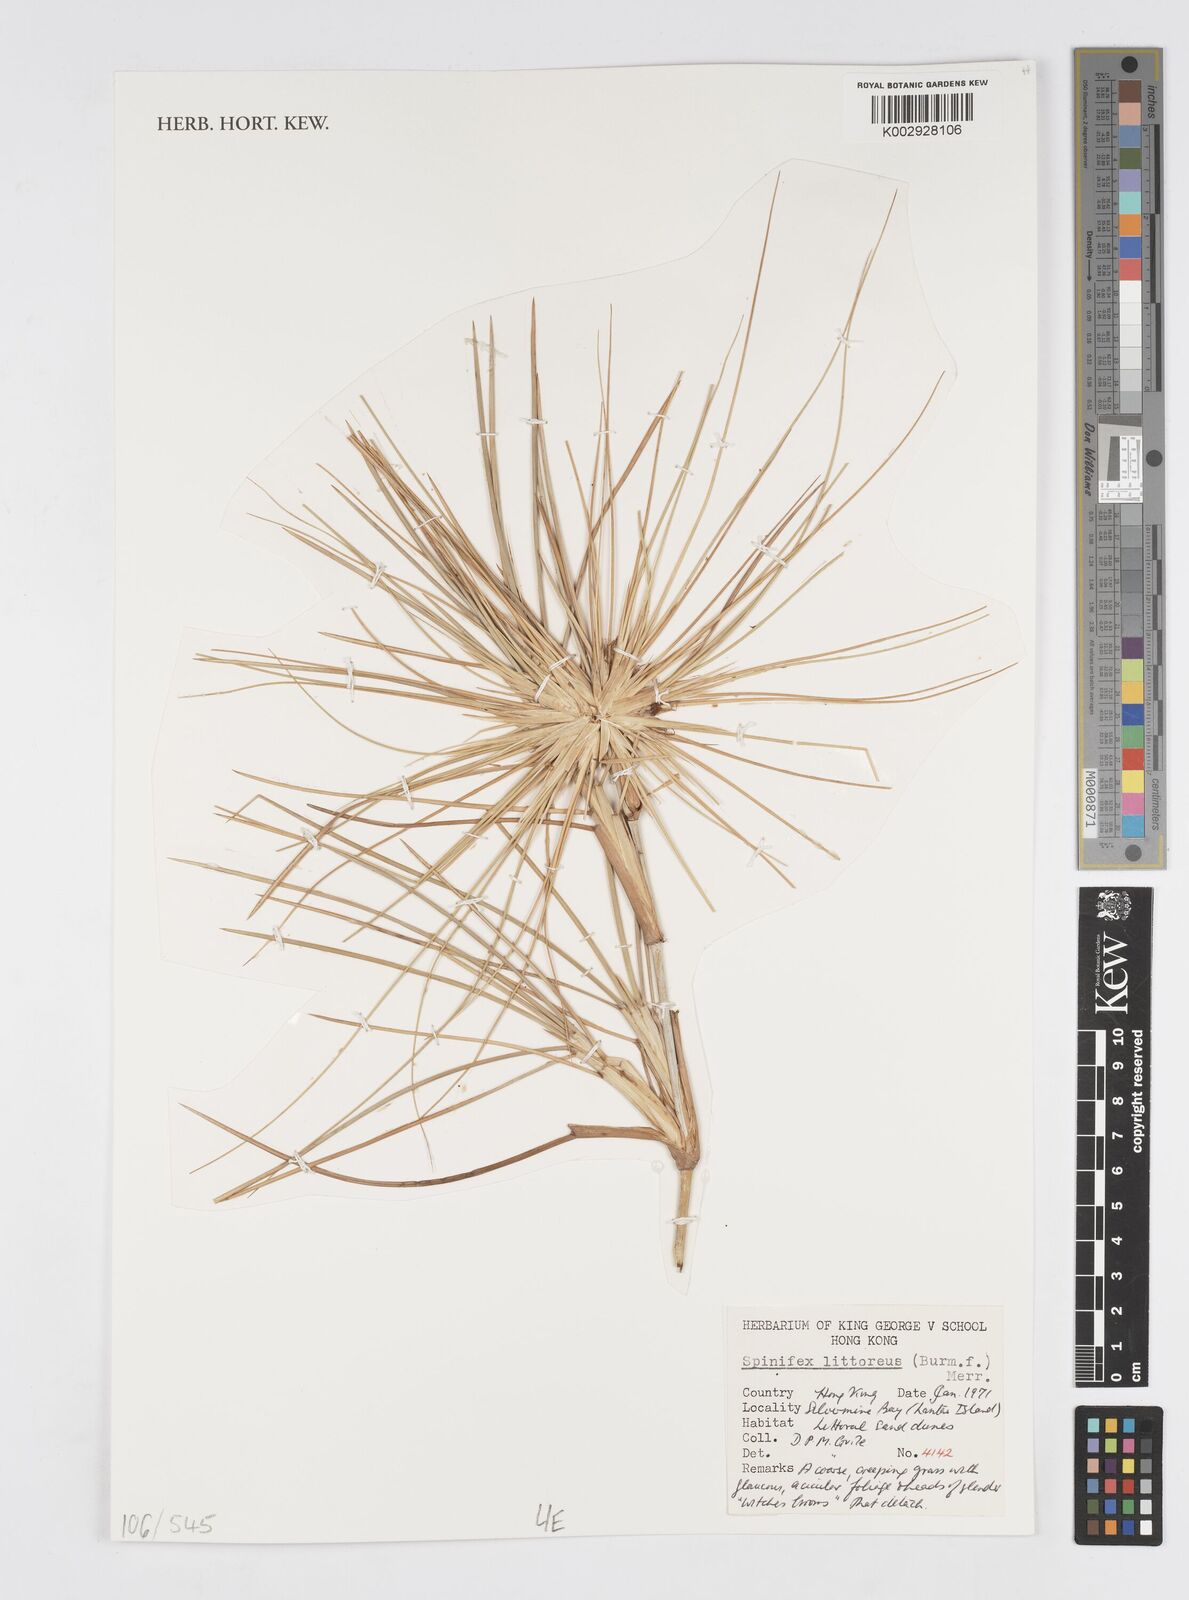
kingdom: Plantae
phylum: Tracheophyta
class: Liliopsida
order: Poales
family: Poaceae
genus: Cenchrus
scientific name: Cenchrus ciliaris
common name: Buffelgrass
